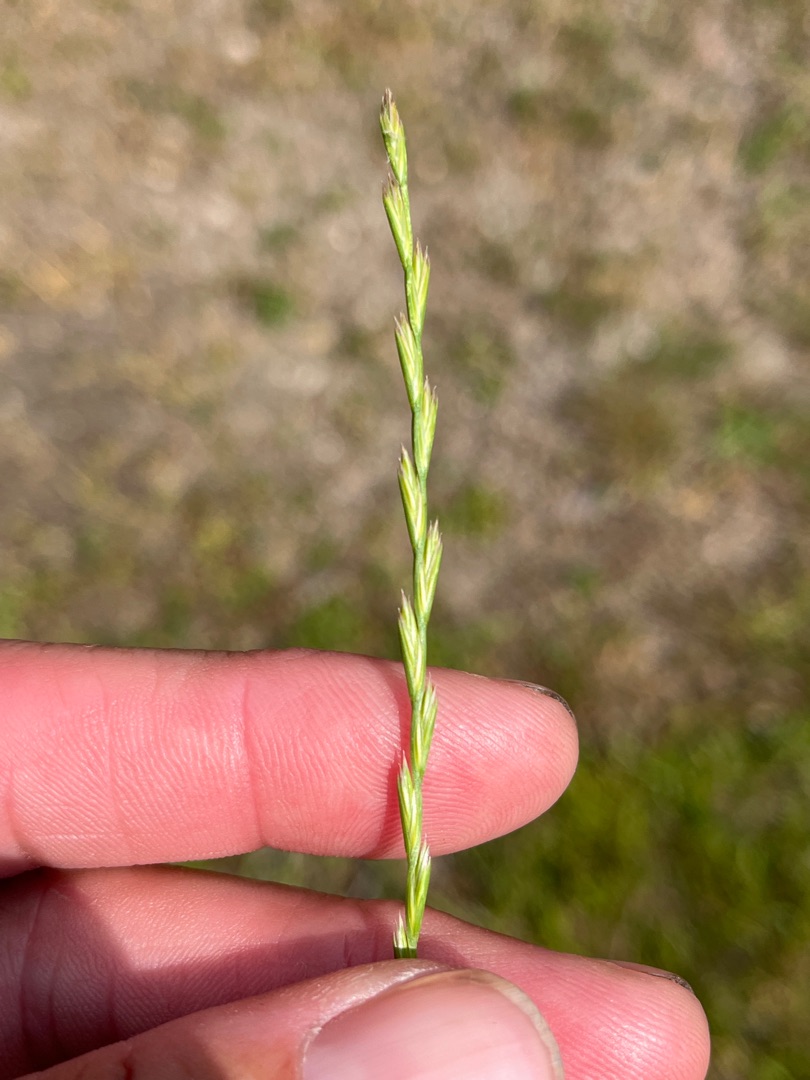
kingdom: Plantae
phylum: Tracheophyta
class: Liliopsida
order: Poales
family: Poaceae
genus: Lolium
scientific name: Lolium perenne
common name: Almindelig rajgræs
